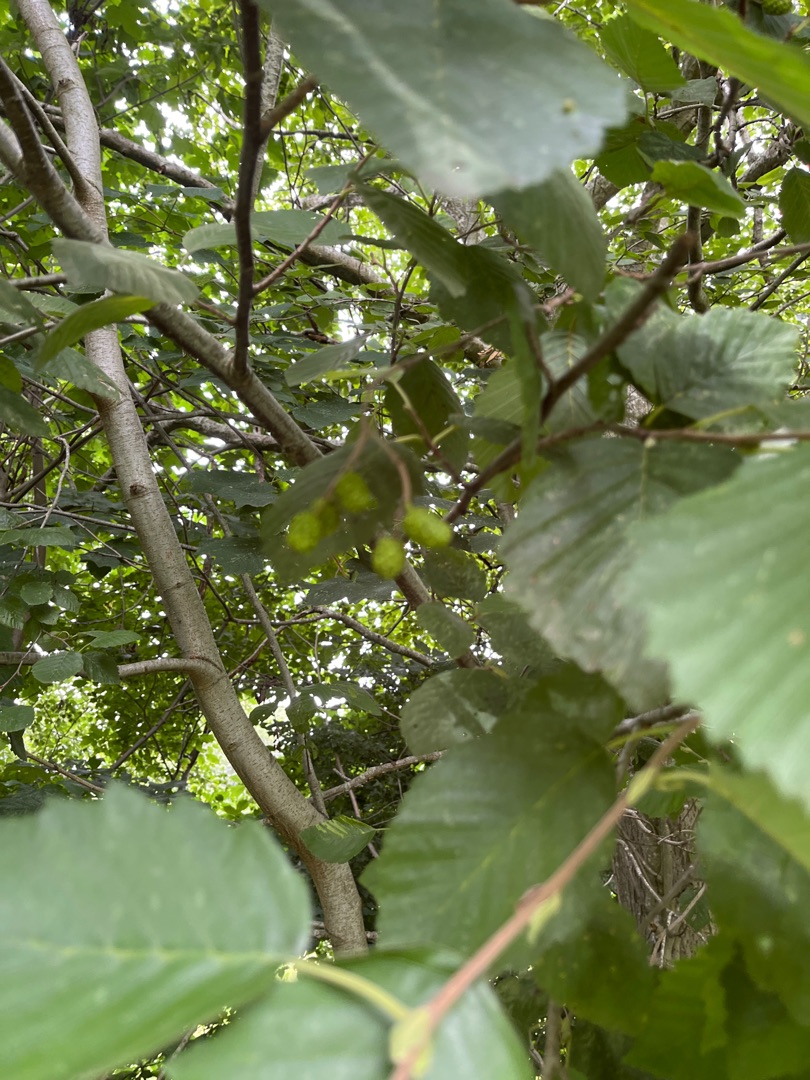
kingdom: Plantae
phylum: Tracheophyta
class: Magnoliopsida
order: Fagales
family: Betulaceae
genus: Alnus
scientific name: Alnus incana
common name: Grå-el/hvid-el
